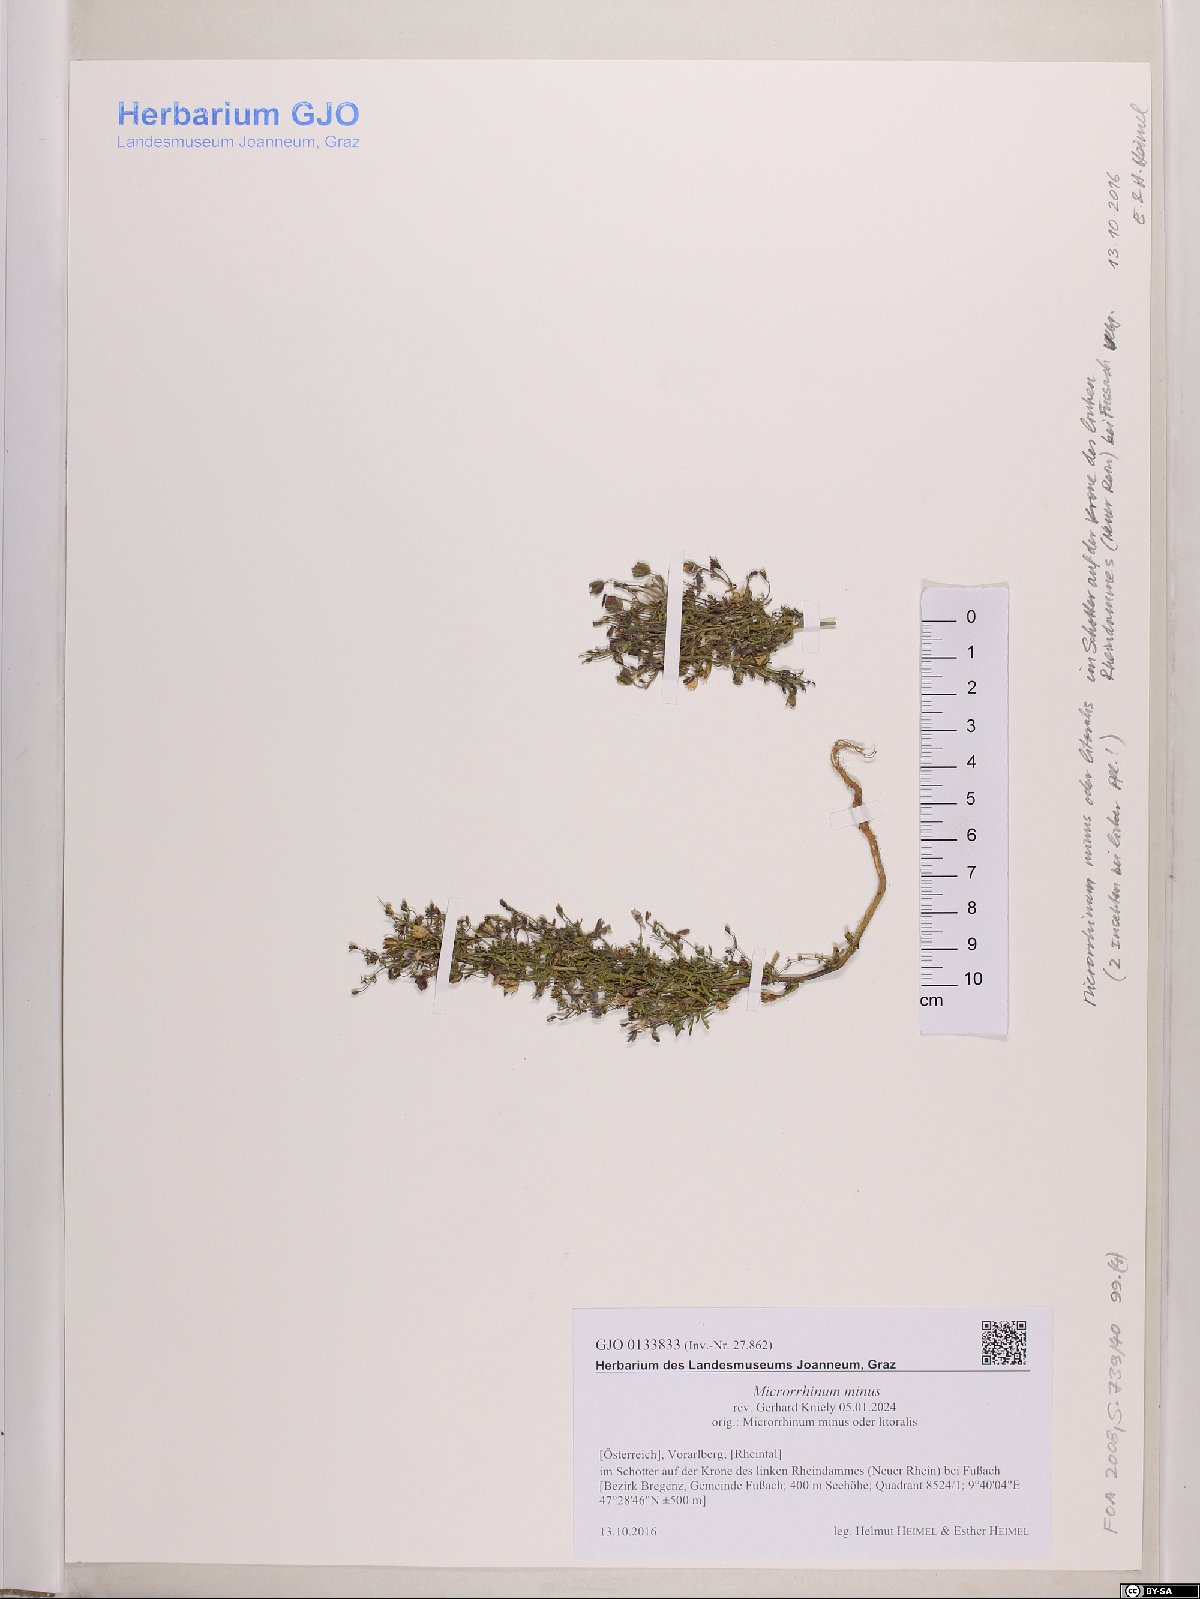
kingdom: Plantae
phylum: Tracheophyta
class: Magnoliopsida
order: Lamiales
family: Plantaginaceae
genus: Chaenorhinum
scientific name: Chaenorhinum minus
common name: Dwarf snapdragon
